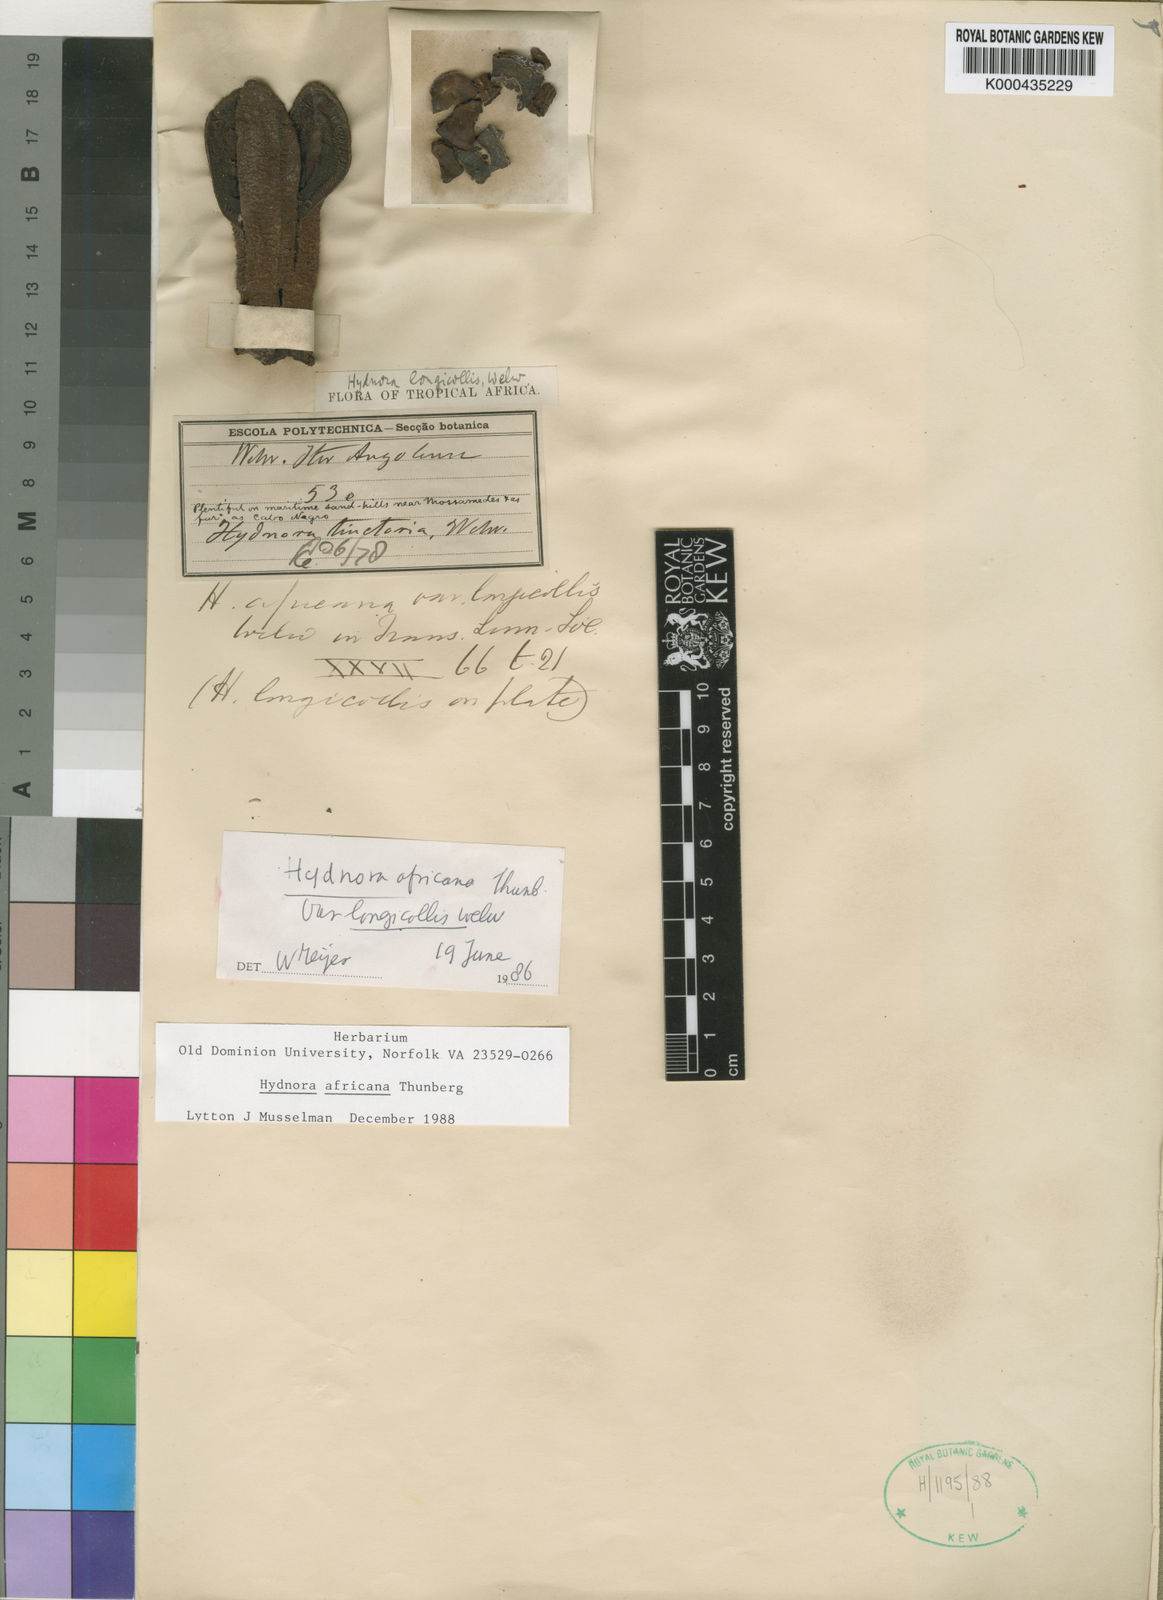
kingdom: Plantae
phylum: Tracheophyta
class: Magnoliopsida
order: Piperales
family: Hydnoraceae
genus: Hydnora
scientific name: Hydnora abyssinica
